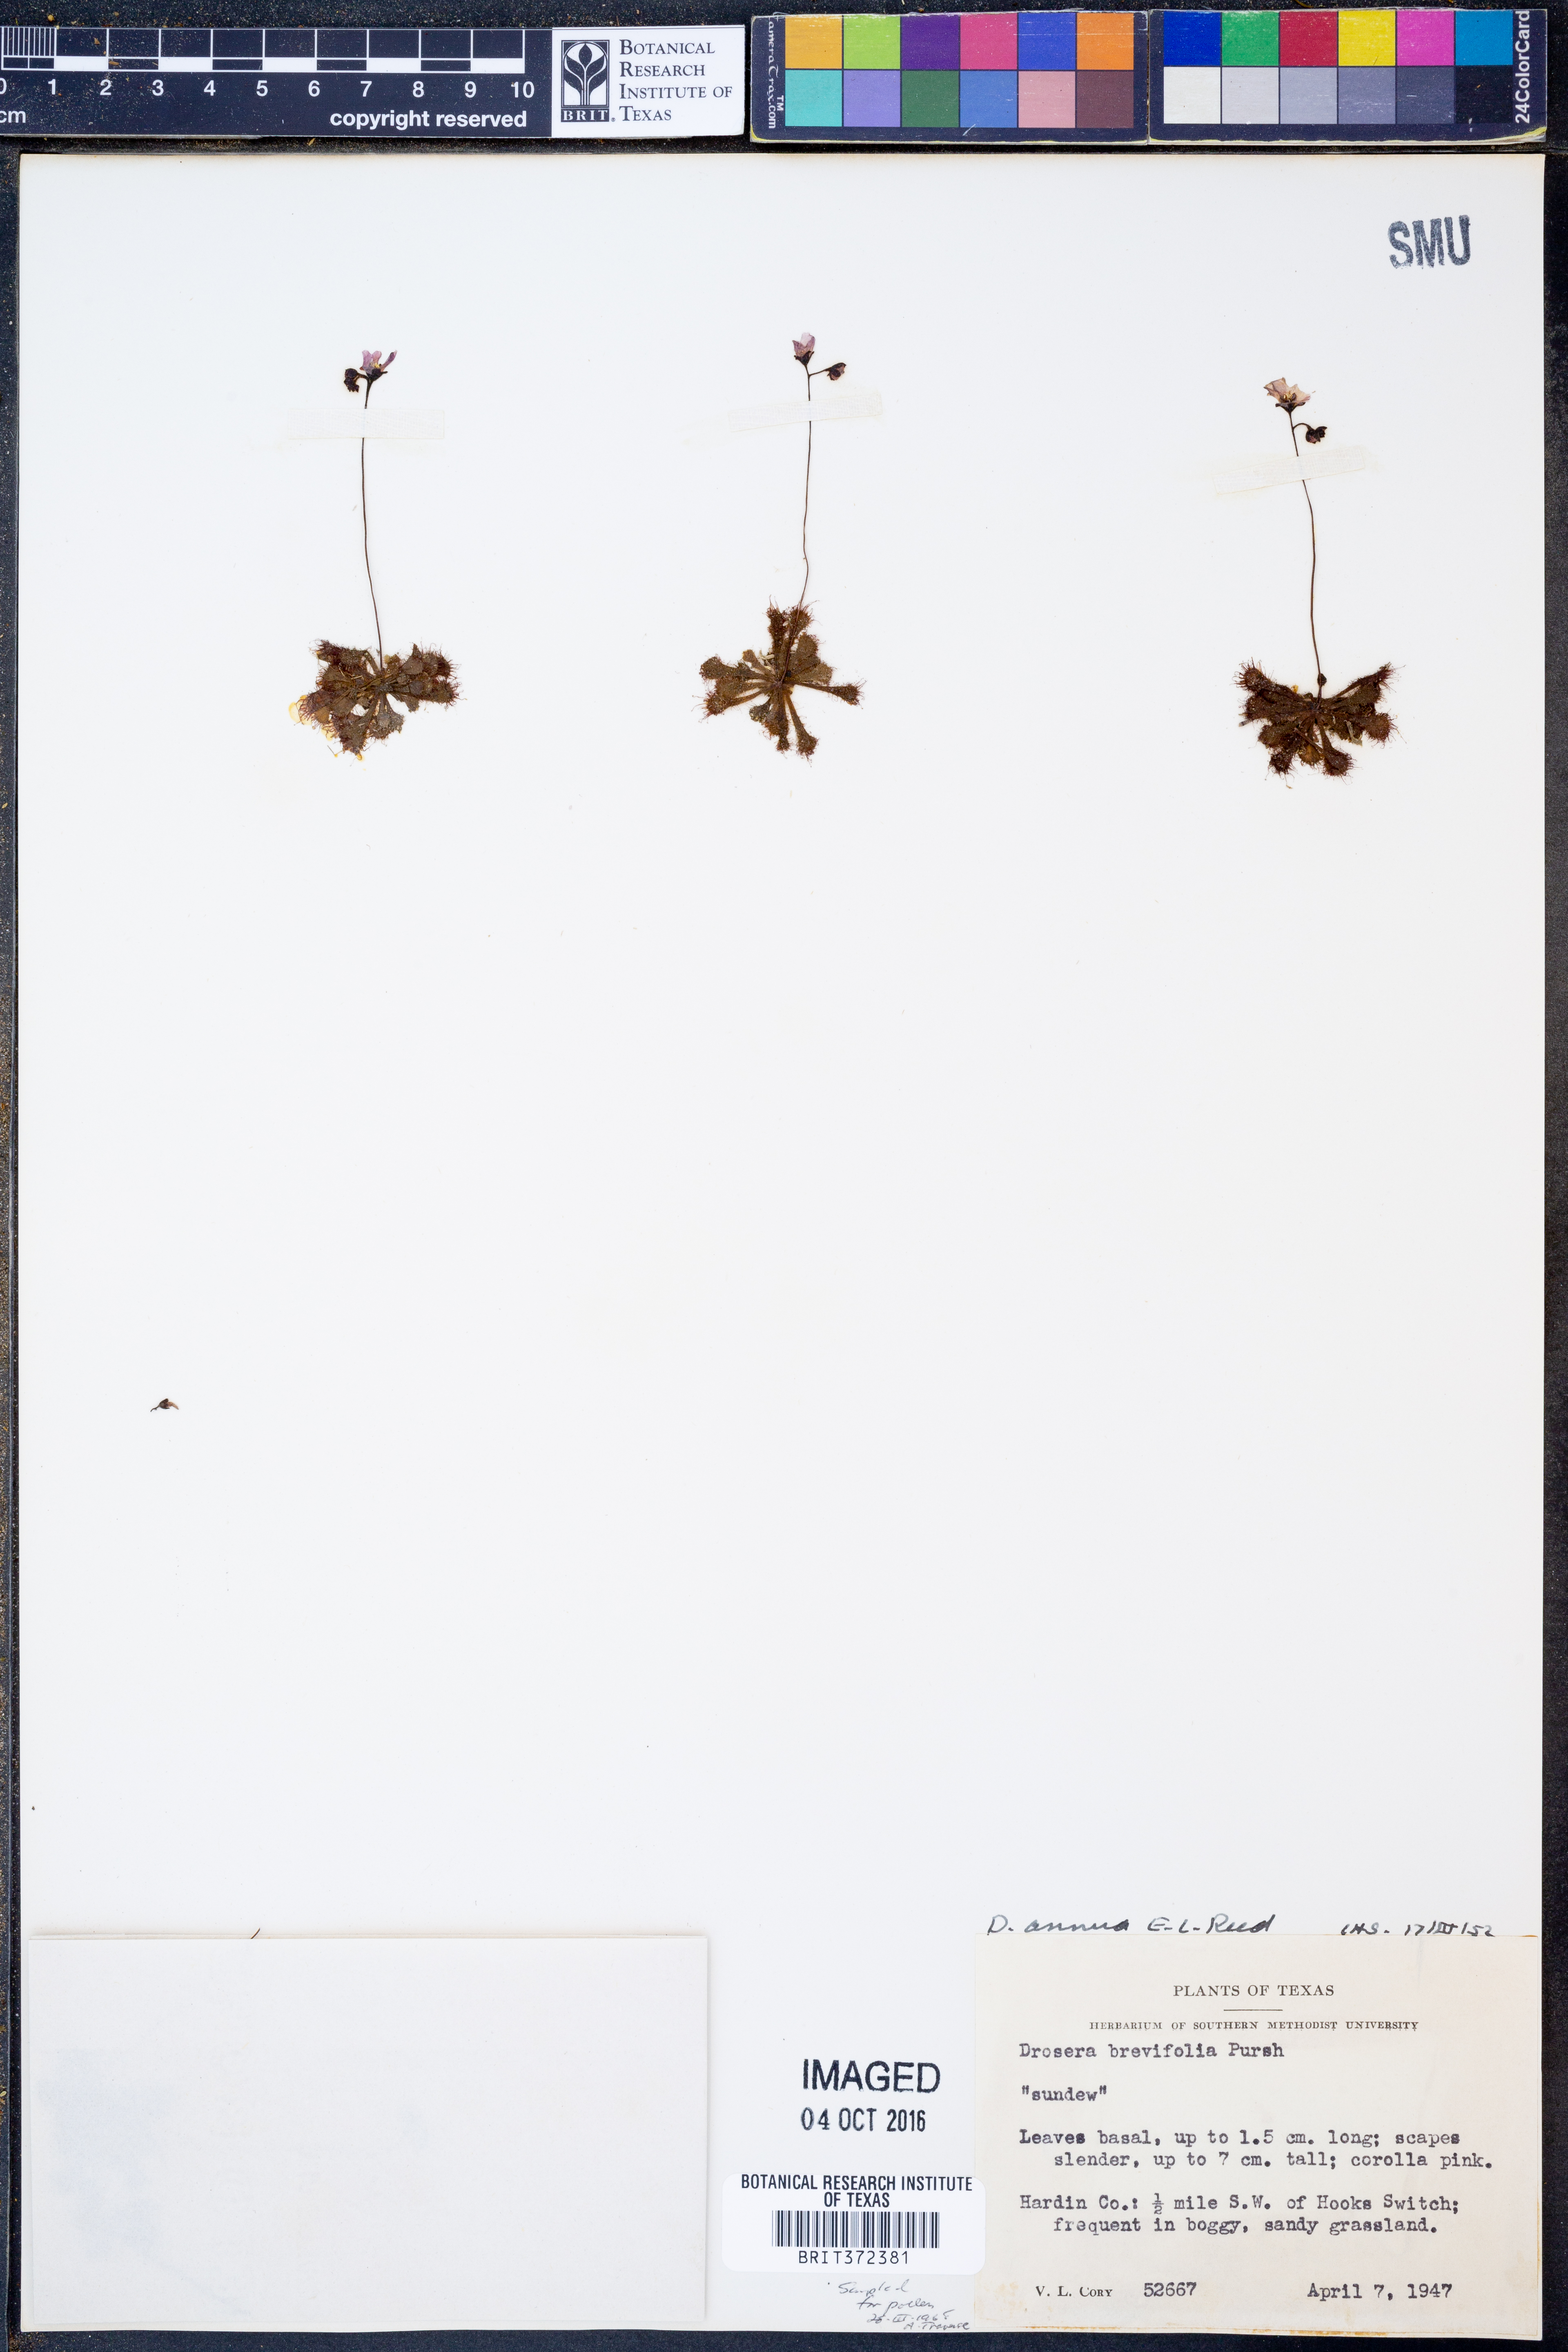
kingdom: Plantae
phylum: Tracheophyta
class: Magnoliopsida
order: Caryophyllales
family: Droseraceae
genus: Drosera
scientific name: Drosera brevifolia
